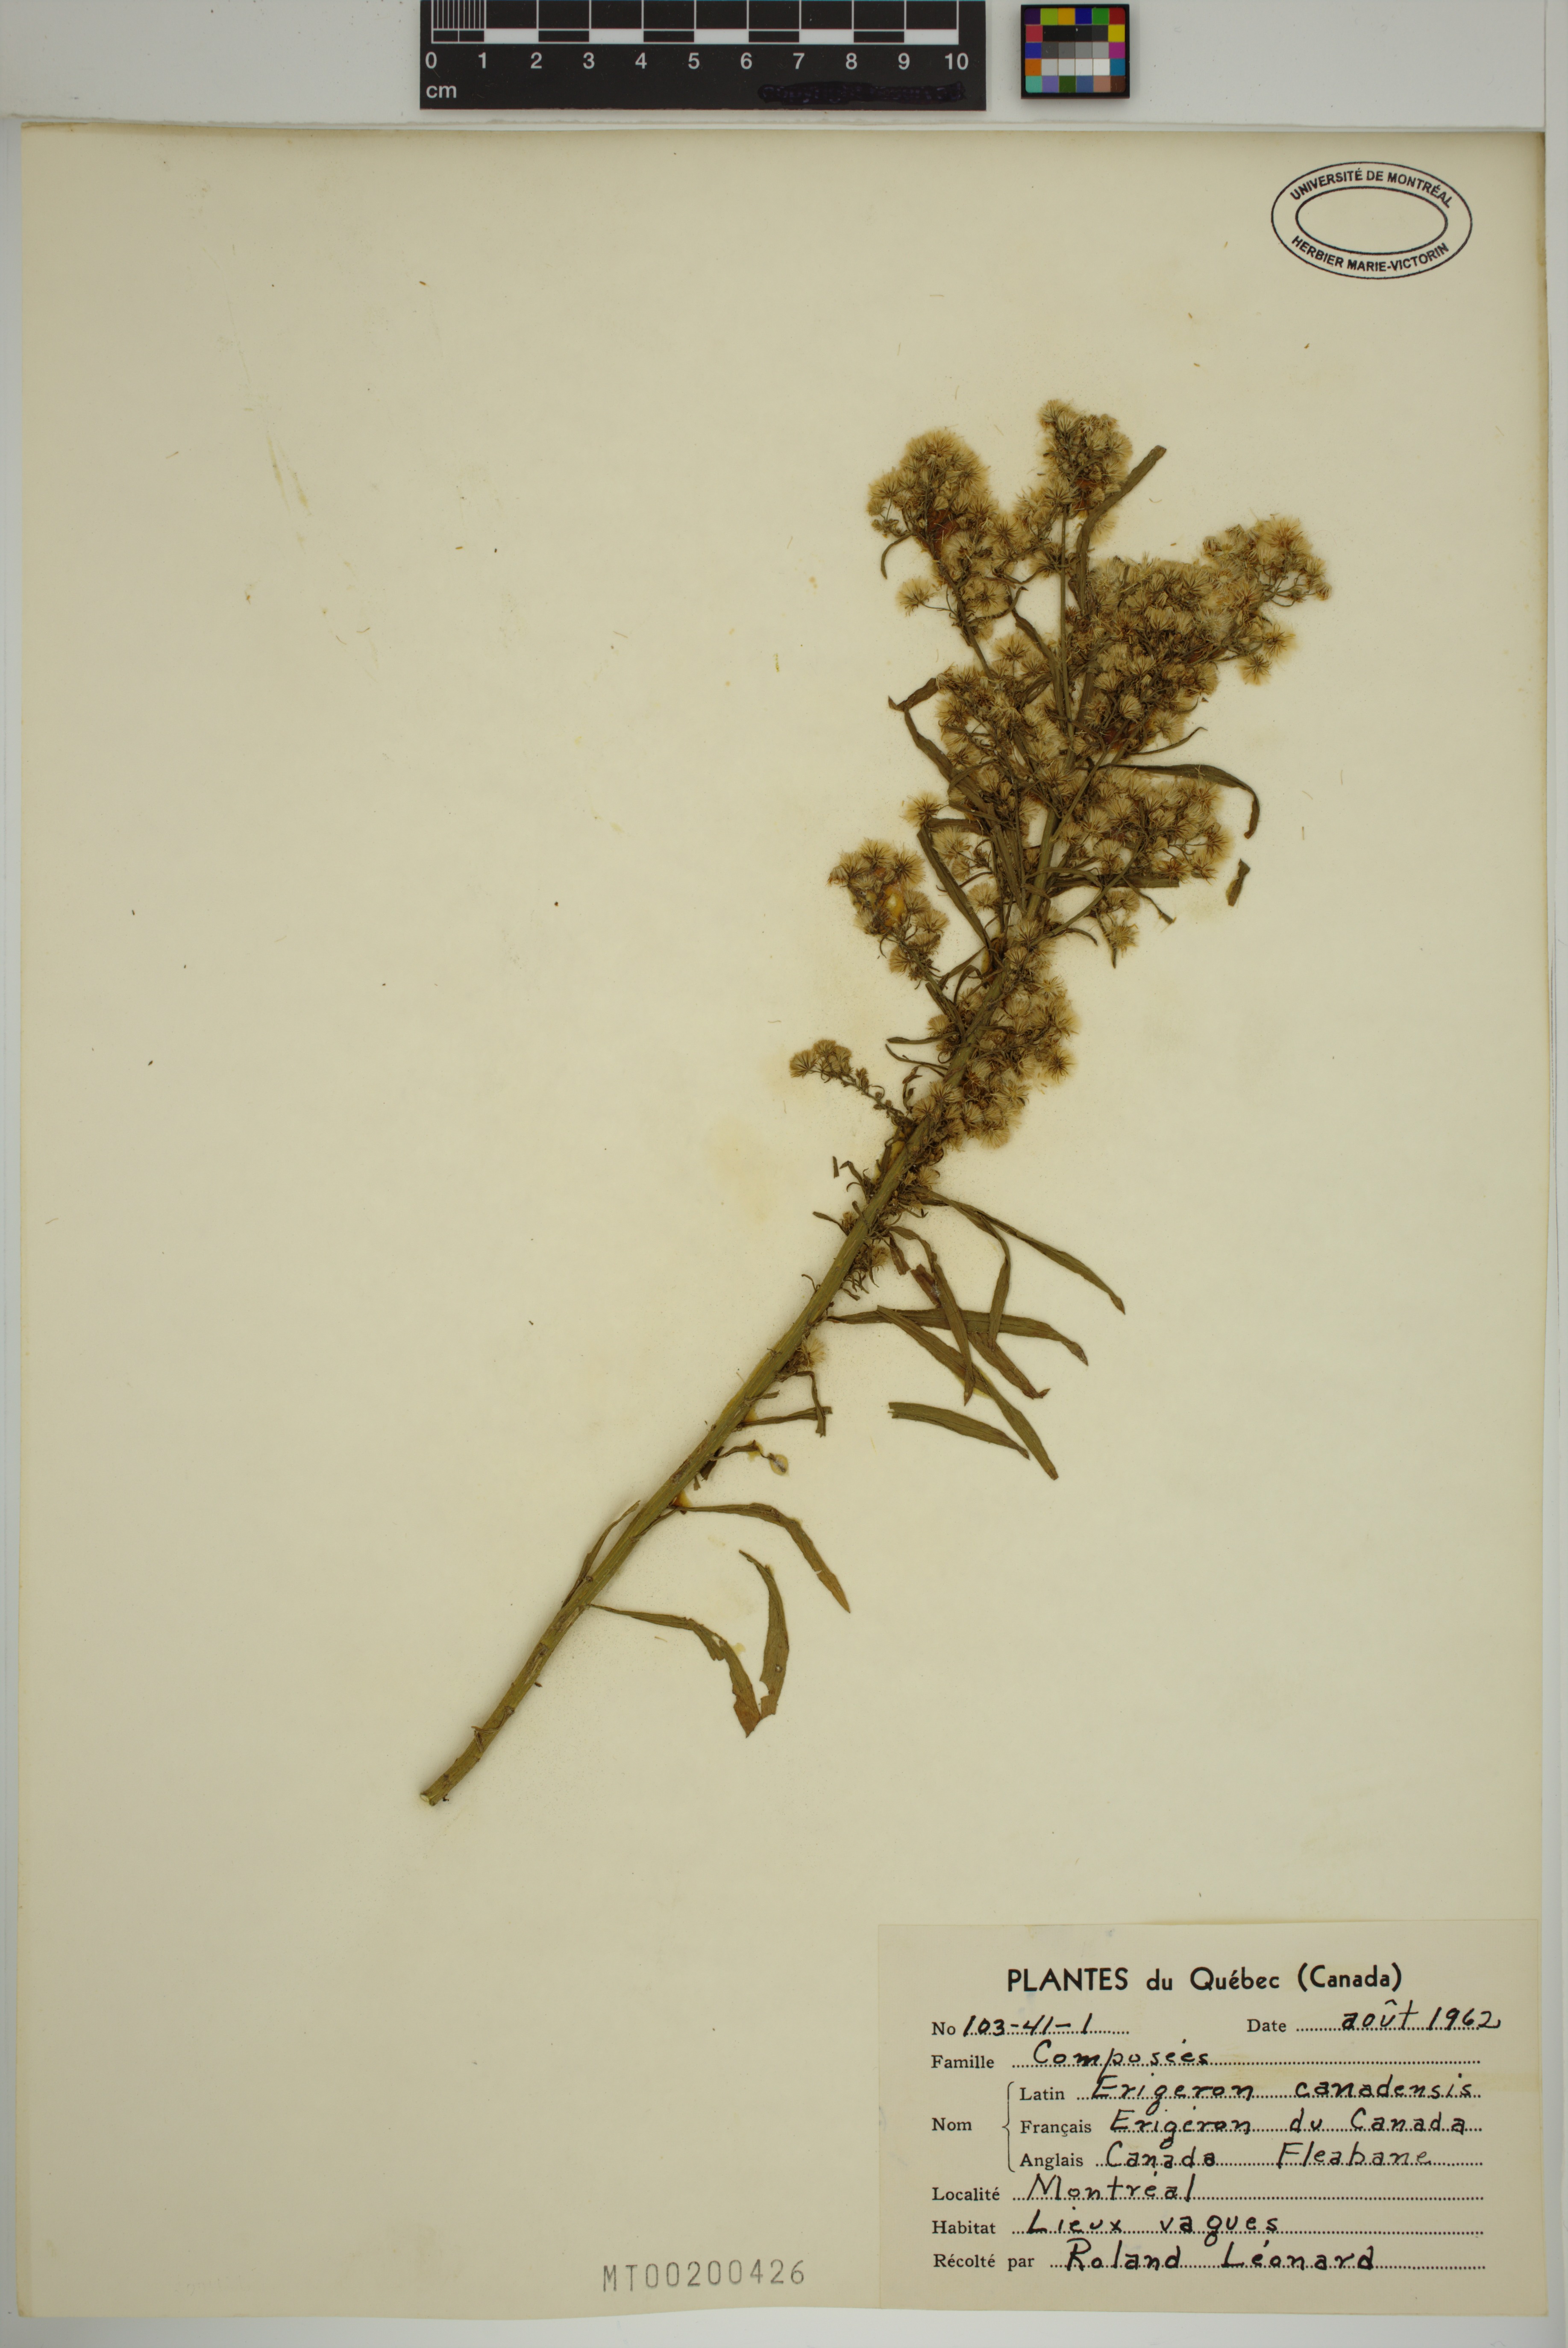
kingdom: Plantae
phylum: Tracheophyta
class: Magnoliopsida
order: Asterales
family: Asteraceae
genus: Erigeron
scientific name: Erigeron canadensis
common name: Canadian fleabane
